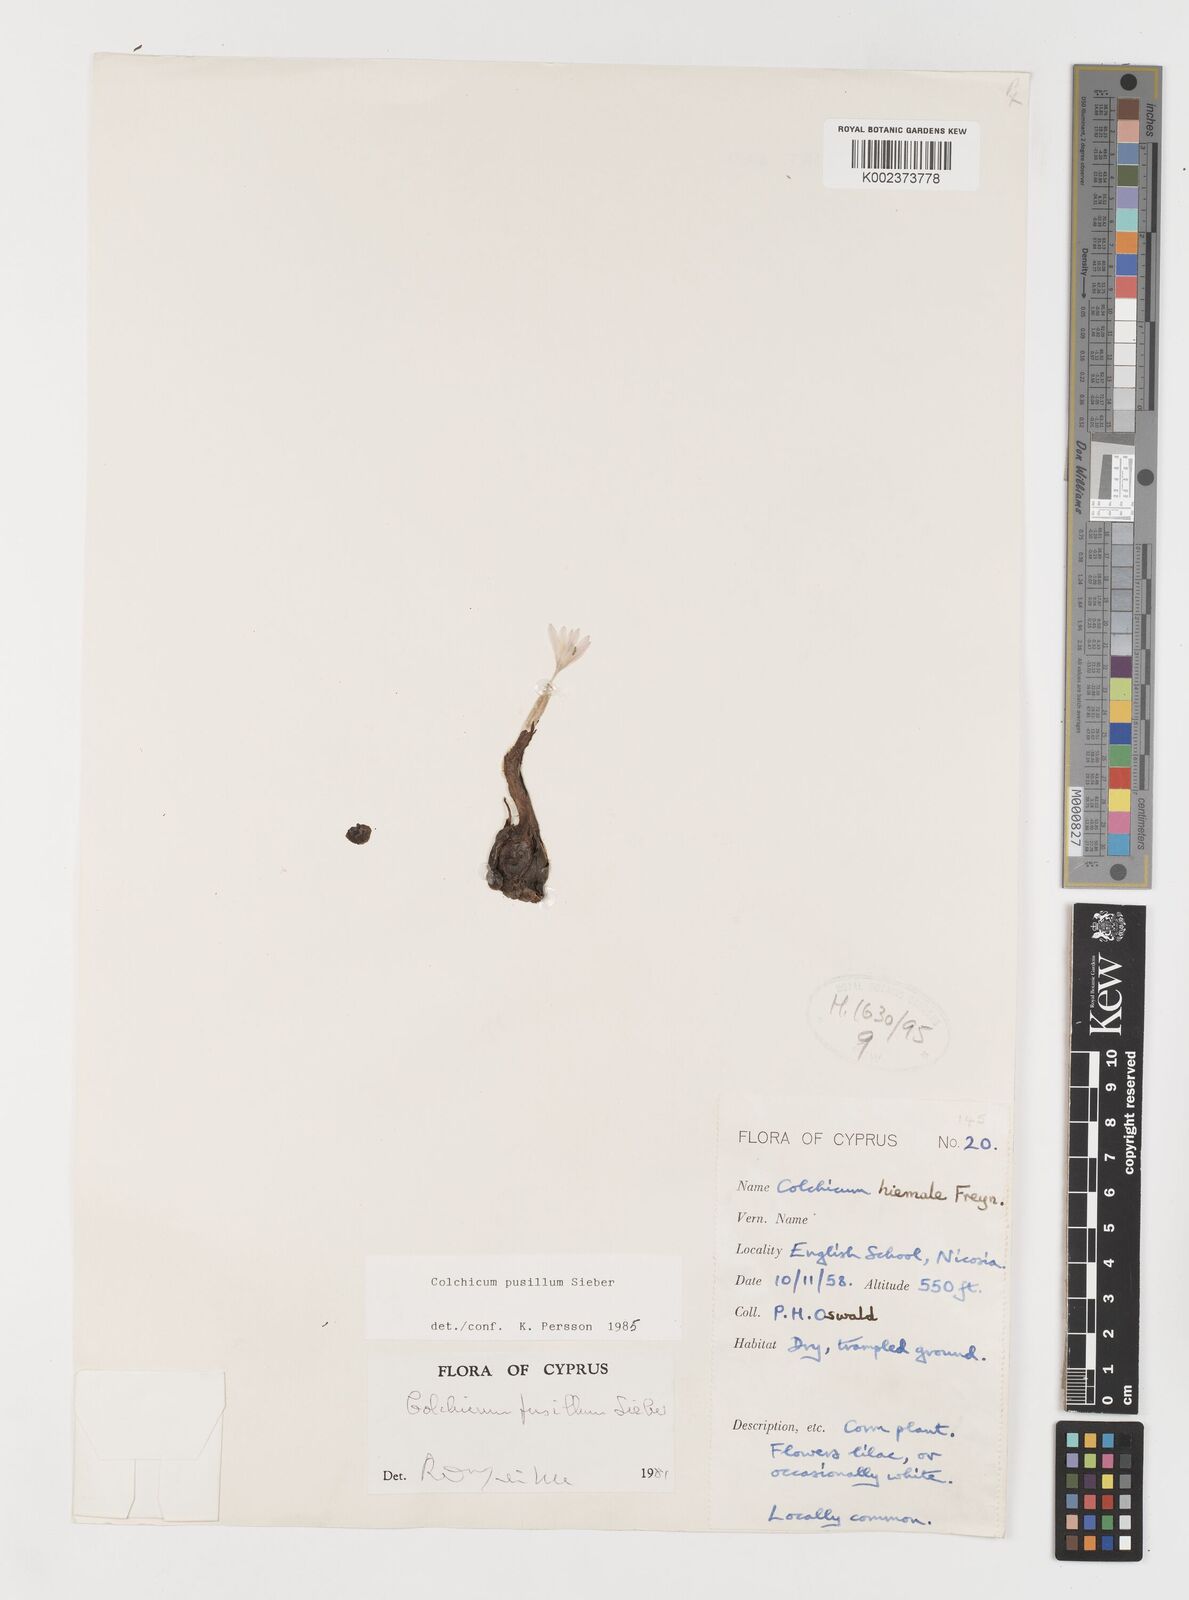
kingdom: Plantae
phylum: Tracheophyta
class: Liliopsida
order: Liliales
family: Colchicaceae
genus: Colchicum
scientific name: Colchicum pusillum
